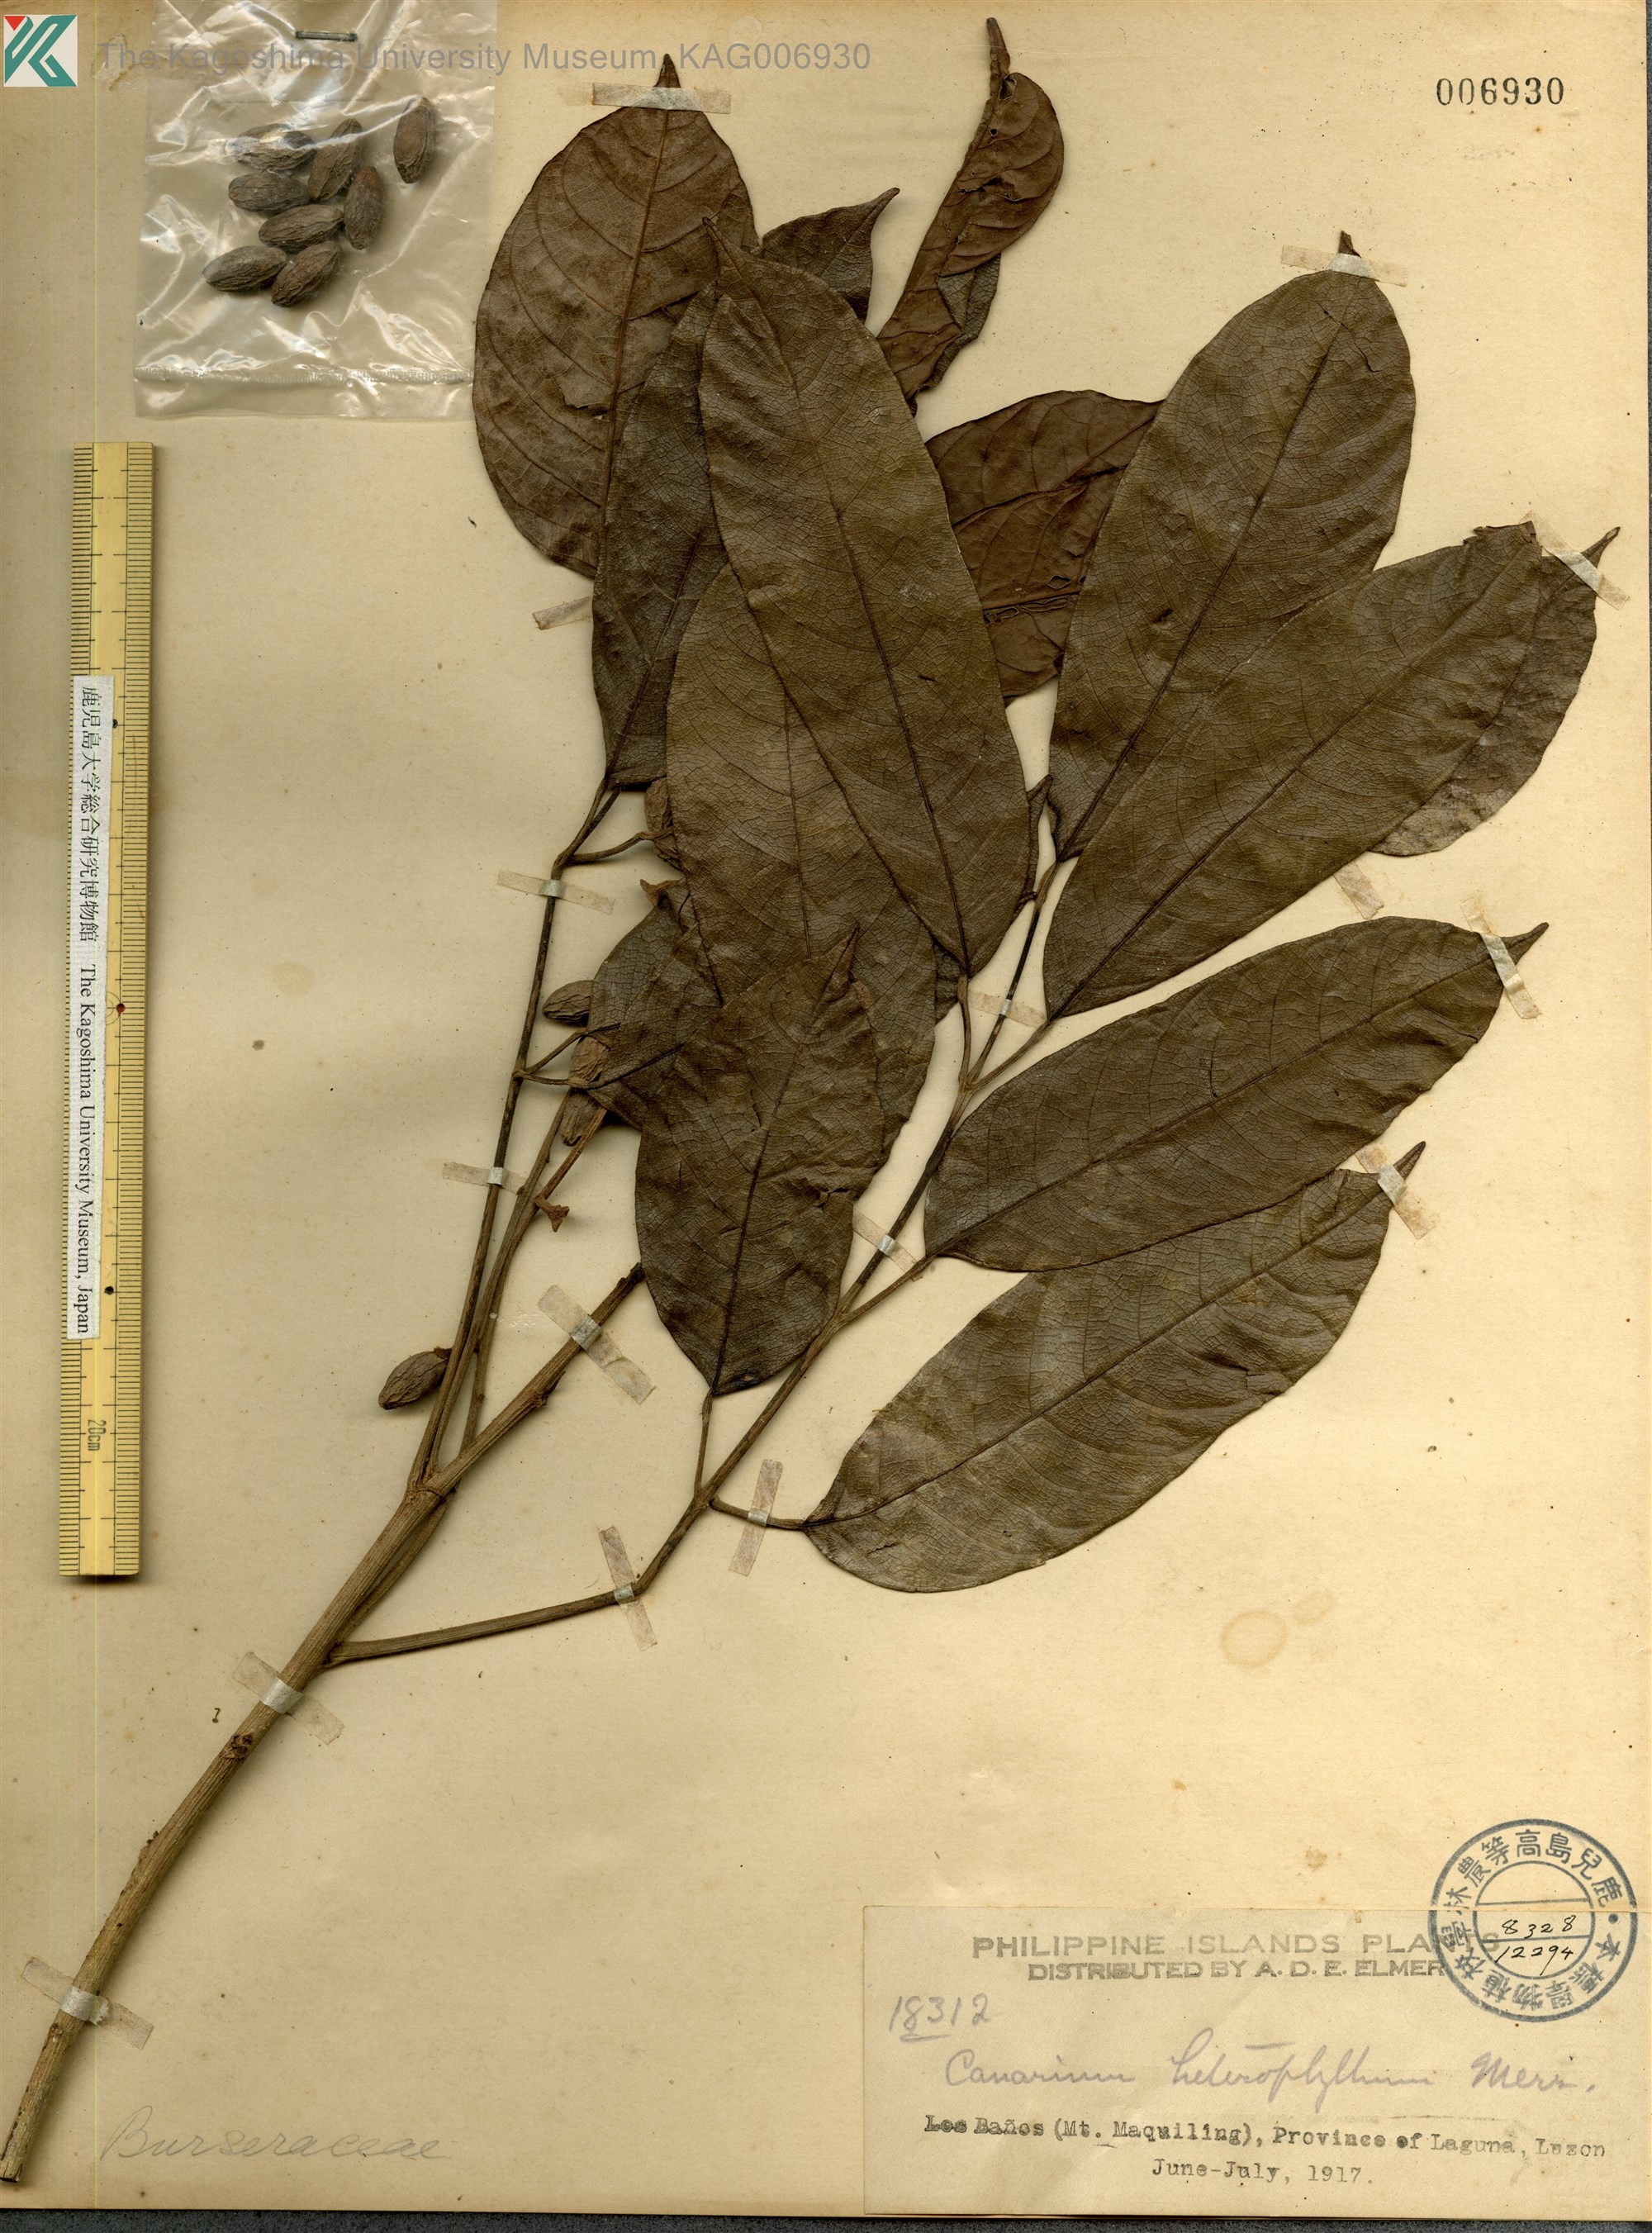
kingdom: Plantae
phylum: Tracheophyta
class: Magnoliopsida
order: Sapindales
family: Burseraceae
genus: Canarium
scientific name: Canarium asperum
